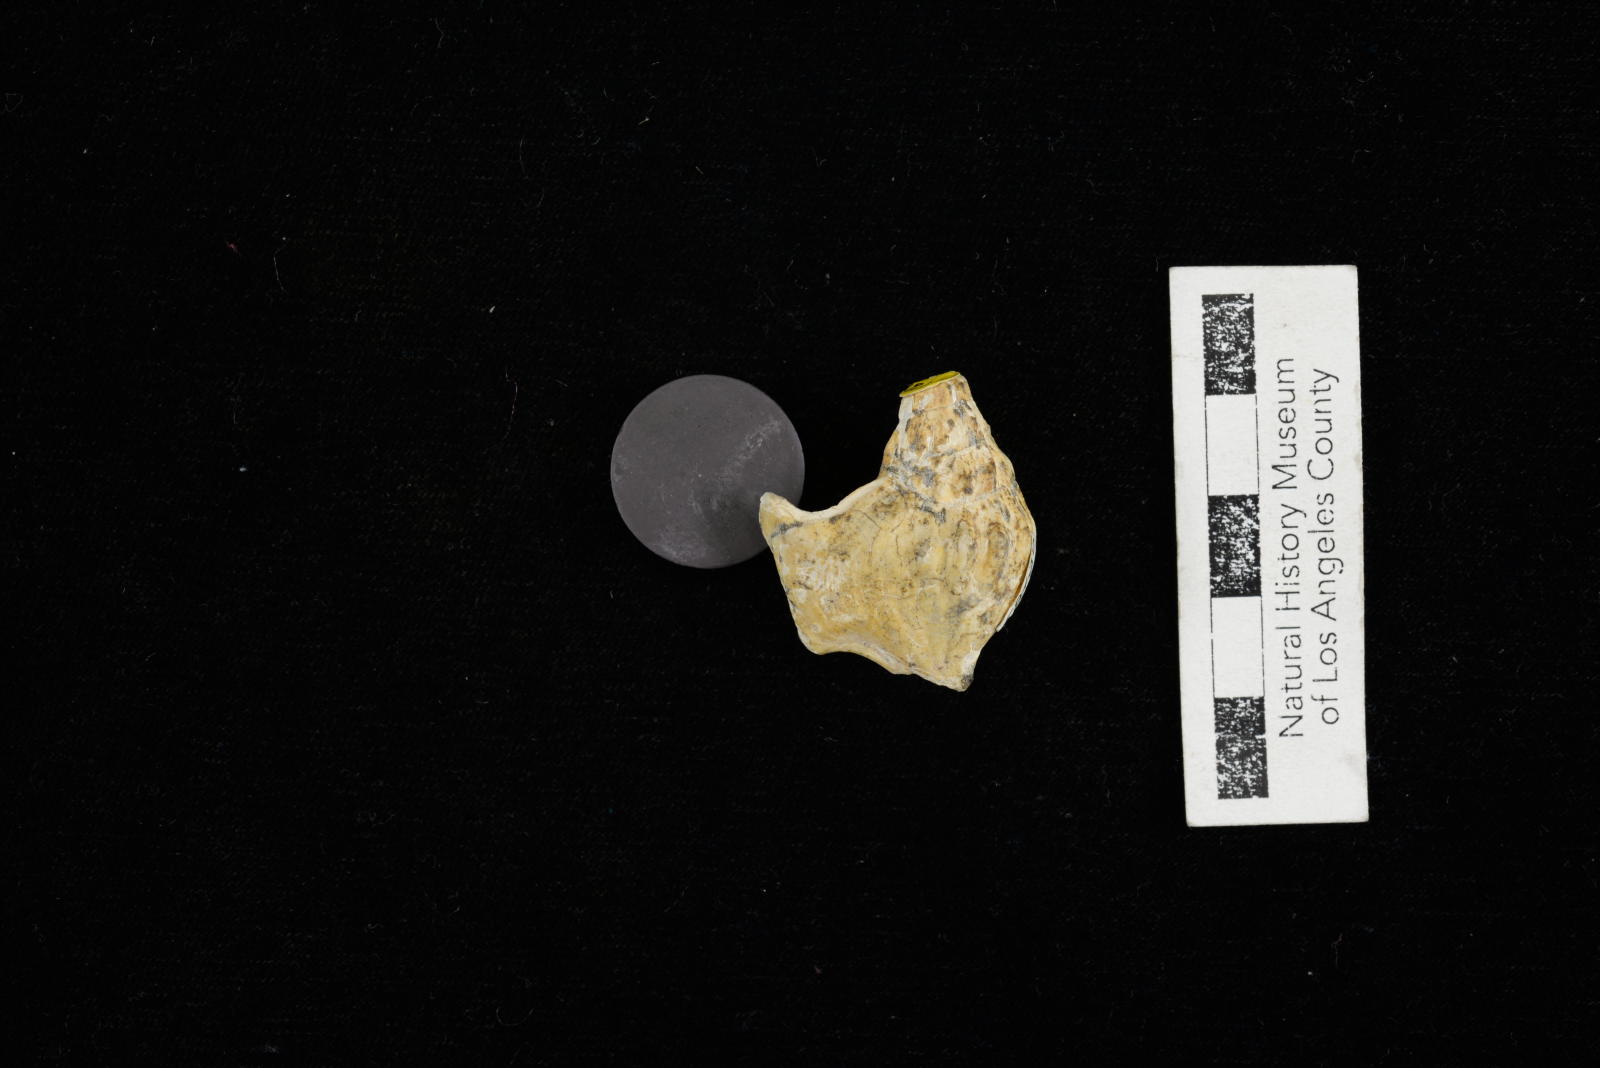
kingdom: Animalia
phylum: Mollusca
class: Gastropoda
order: Littorinimorpha
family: Aporrhaidae
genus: Latiala
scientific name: Latiala Alaria nodosa
